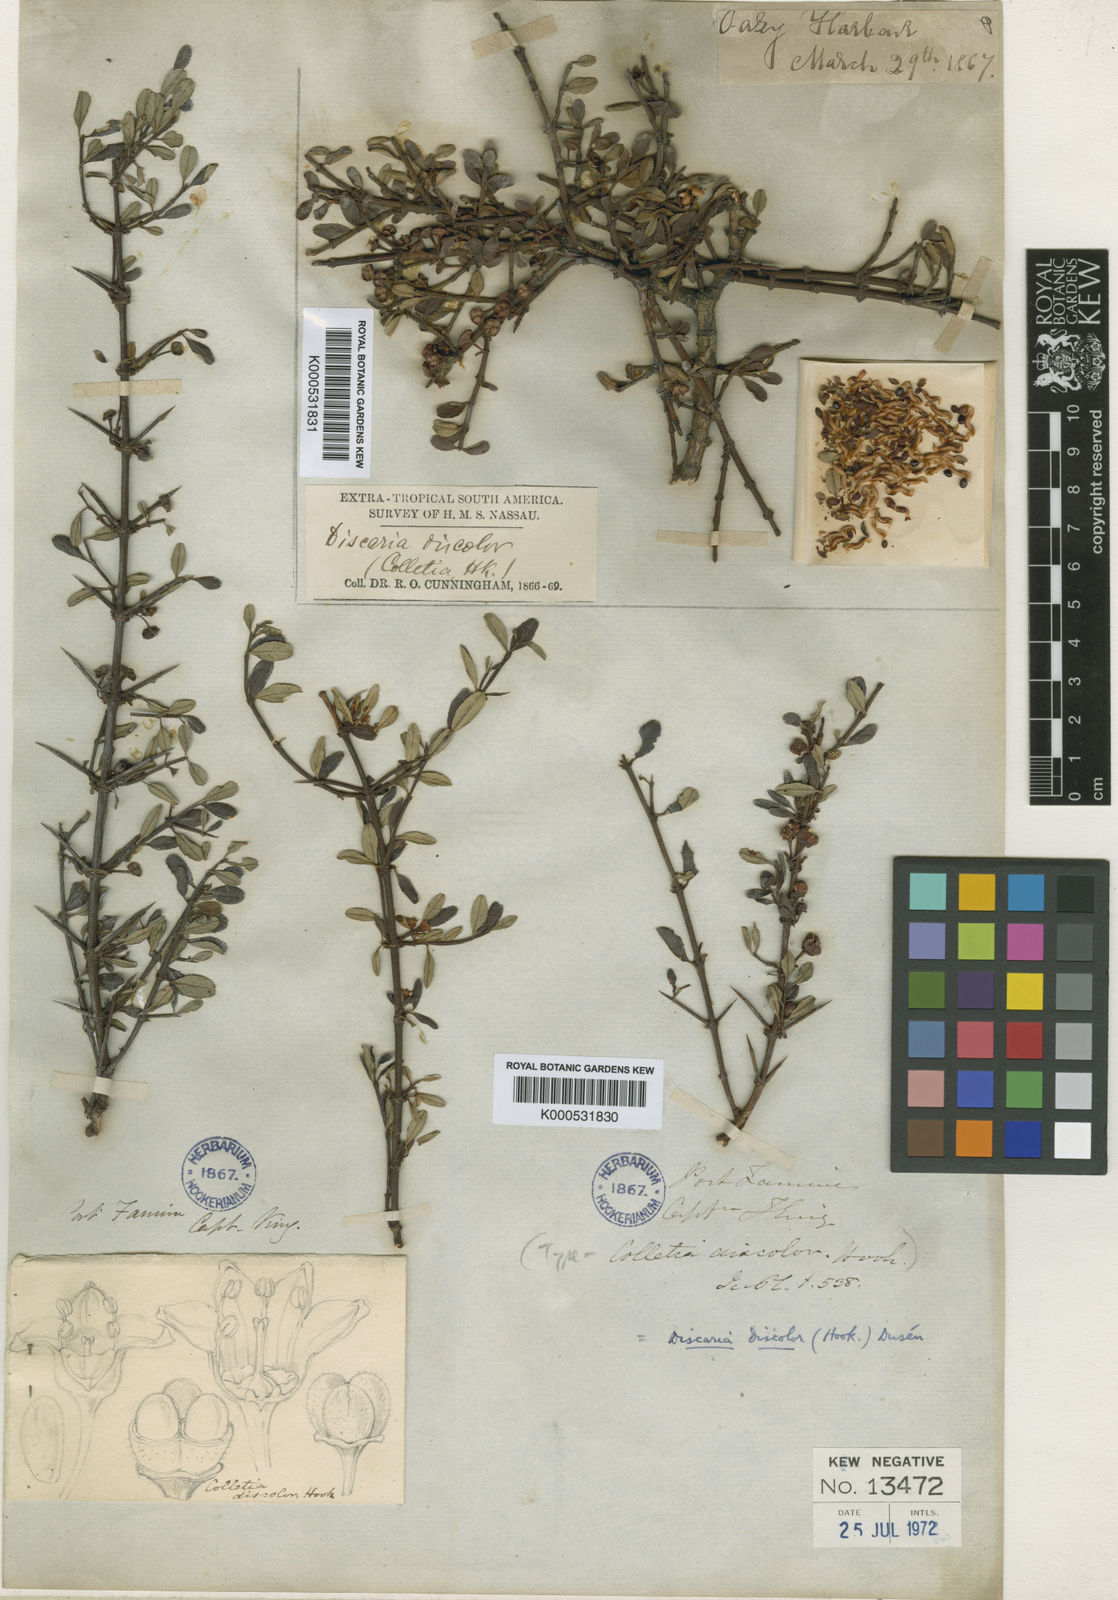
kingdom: Plantae
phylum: Tracheophyta
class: Magnoliopsida
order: Rosales
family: Rhamnaceae
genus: Discaria
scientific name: Discaria chacaye
